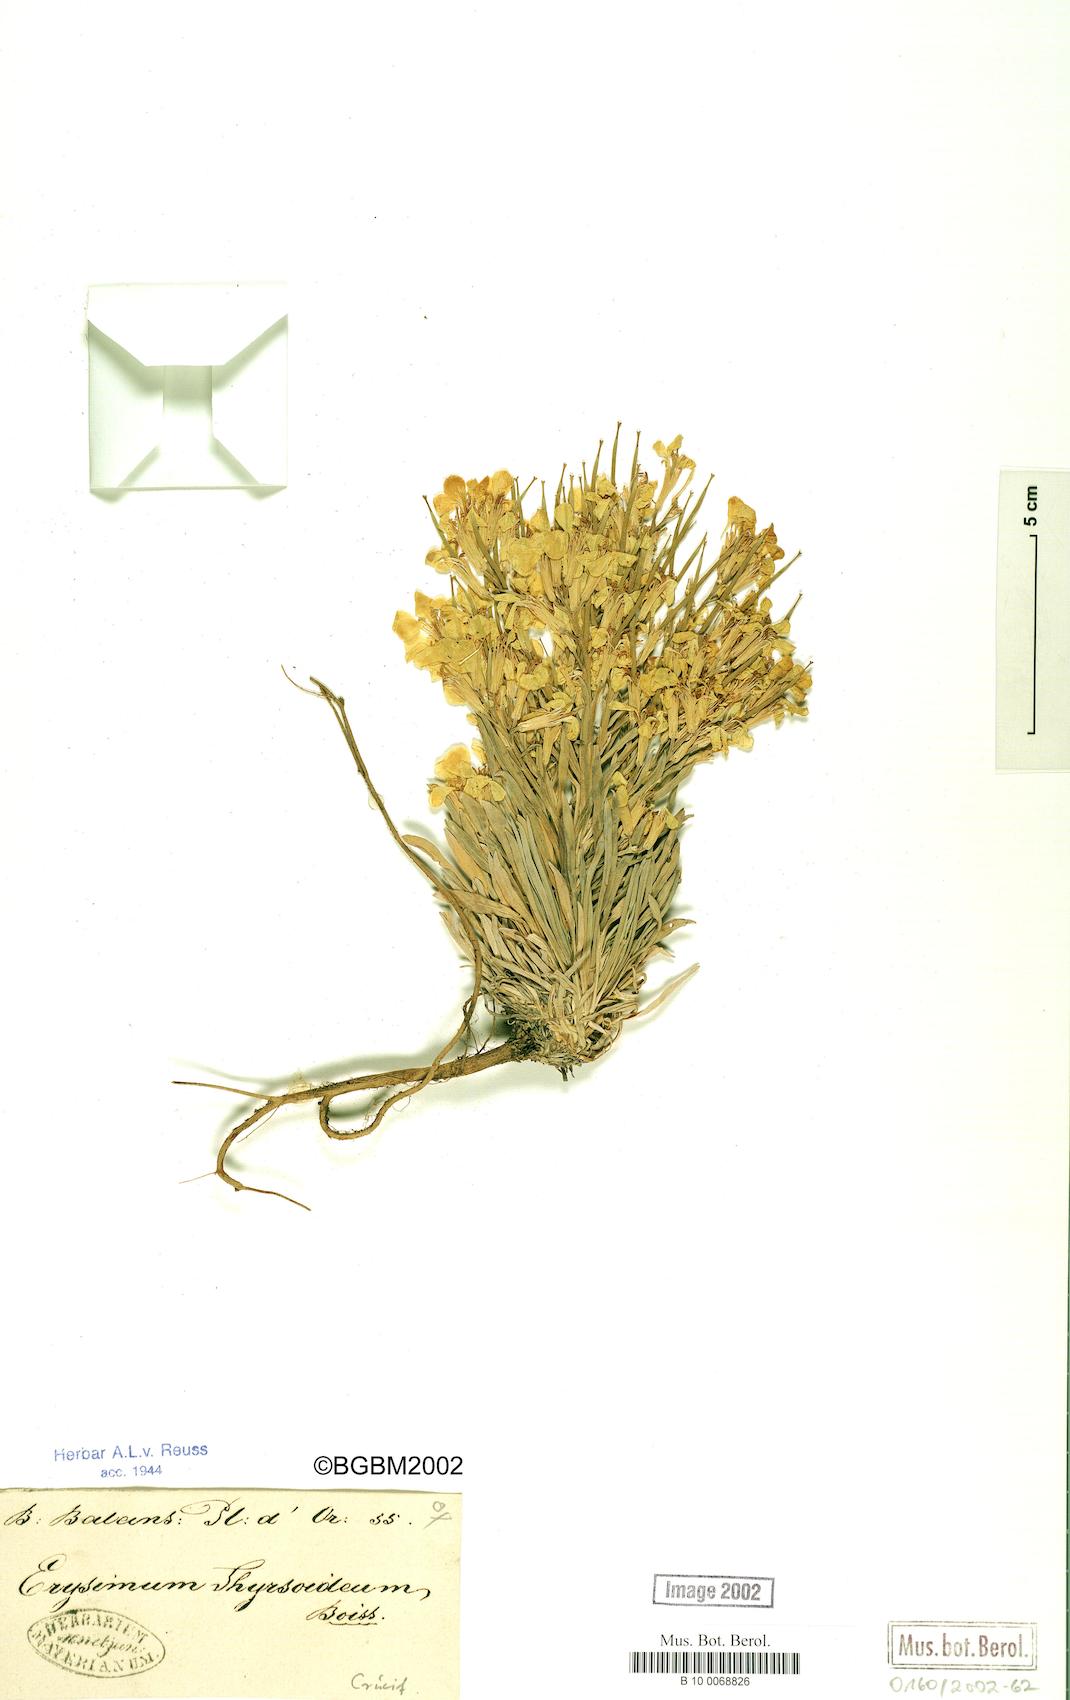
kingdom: Plantae
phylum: Tracheophyta
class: Magnoliopsida
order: Brassicales
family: Brassicaceae
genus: Erysimum
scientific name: Erysimum pycnophyllum
